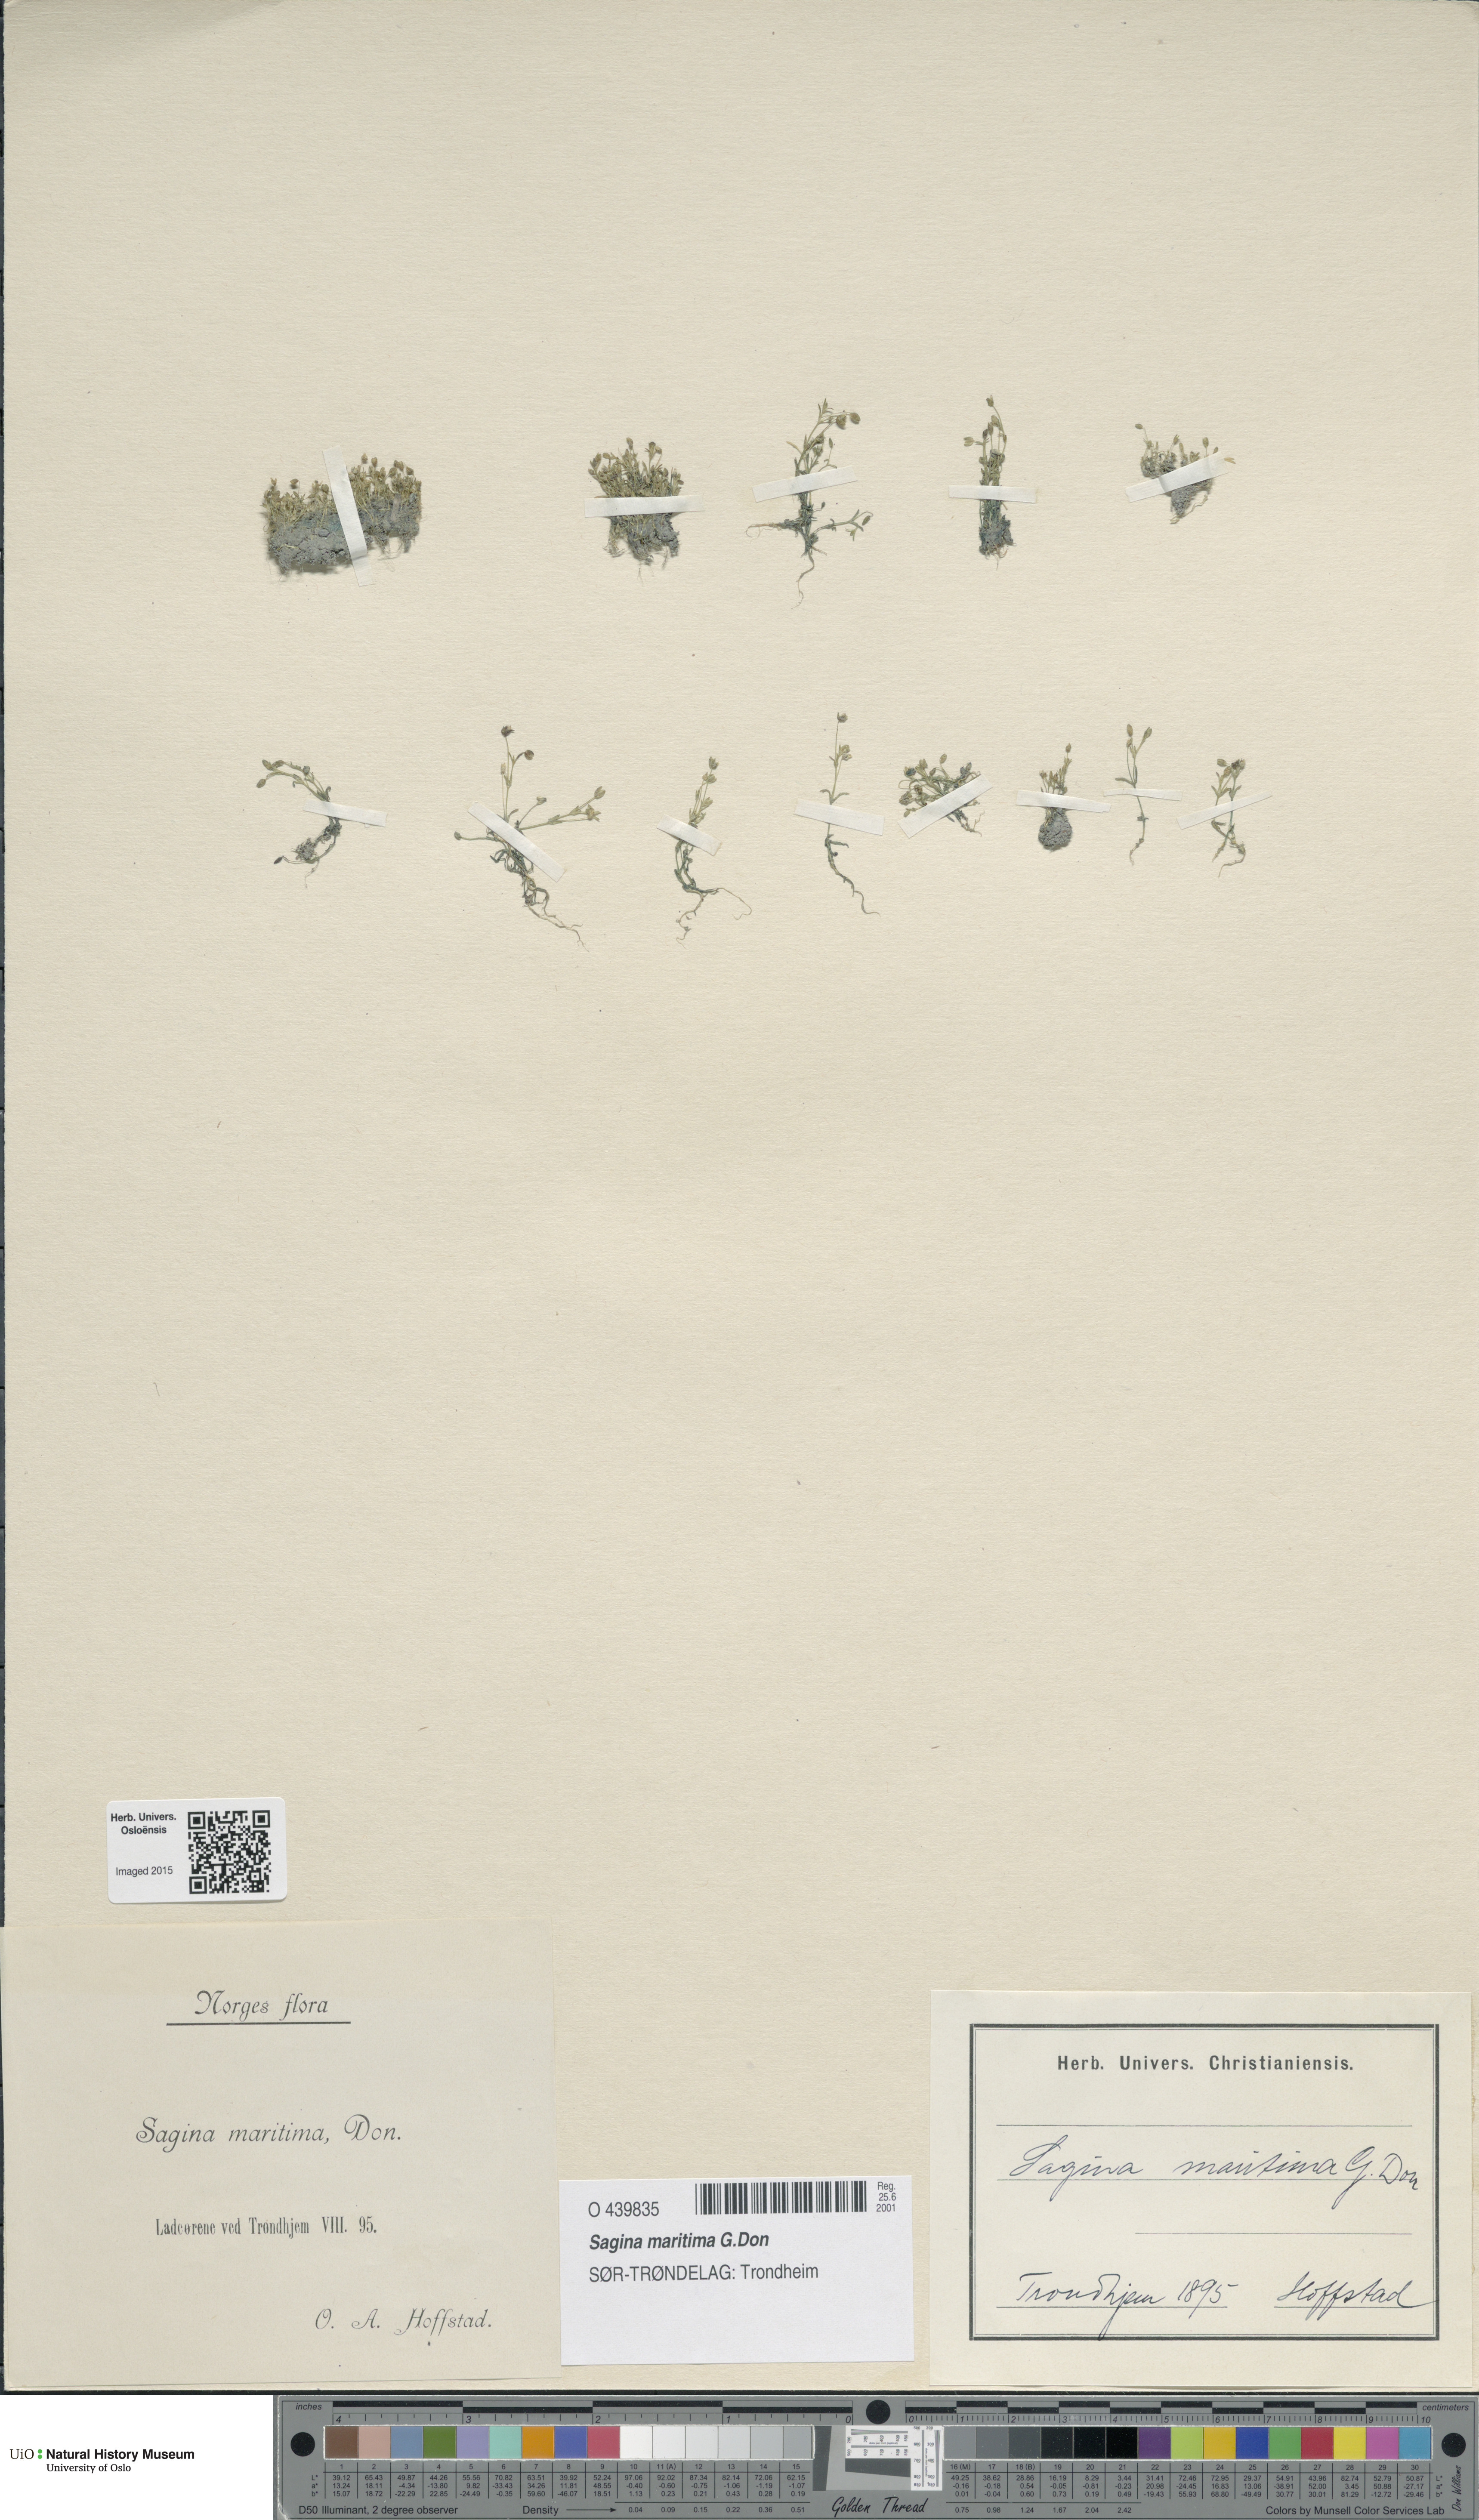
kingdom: Plantae
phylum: Tracheophyta
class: Magnoliopsida
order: Caryophyllales
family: Caryophyllaceae
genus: Sagina
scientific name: Sagina maritima
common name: Sea pearlwort
